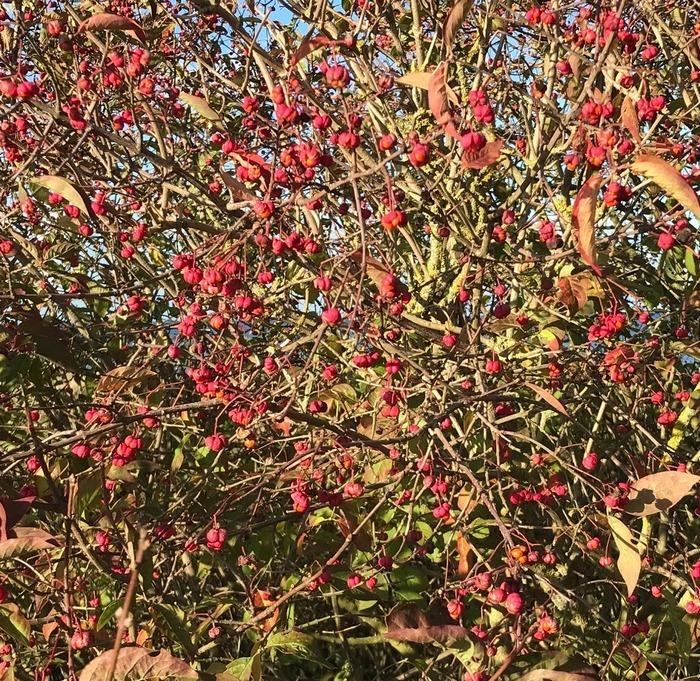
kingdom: Plantae
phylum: Tracheophyta
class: Magnoliopsida
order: Celastrales
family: Celastraceae
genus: Euonymus
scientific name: Euonymus europaeus
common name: Benved
